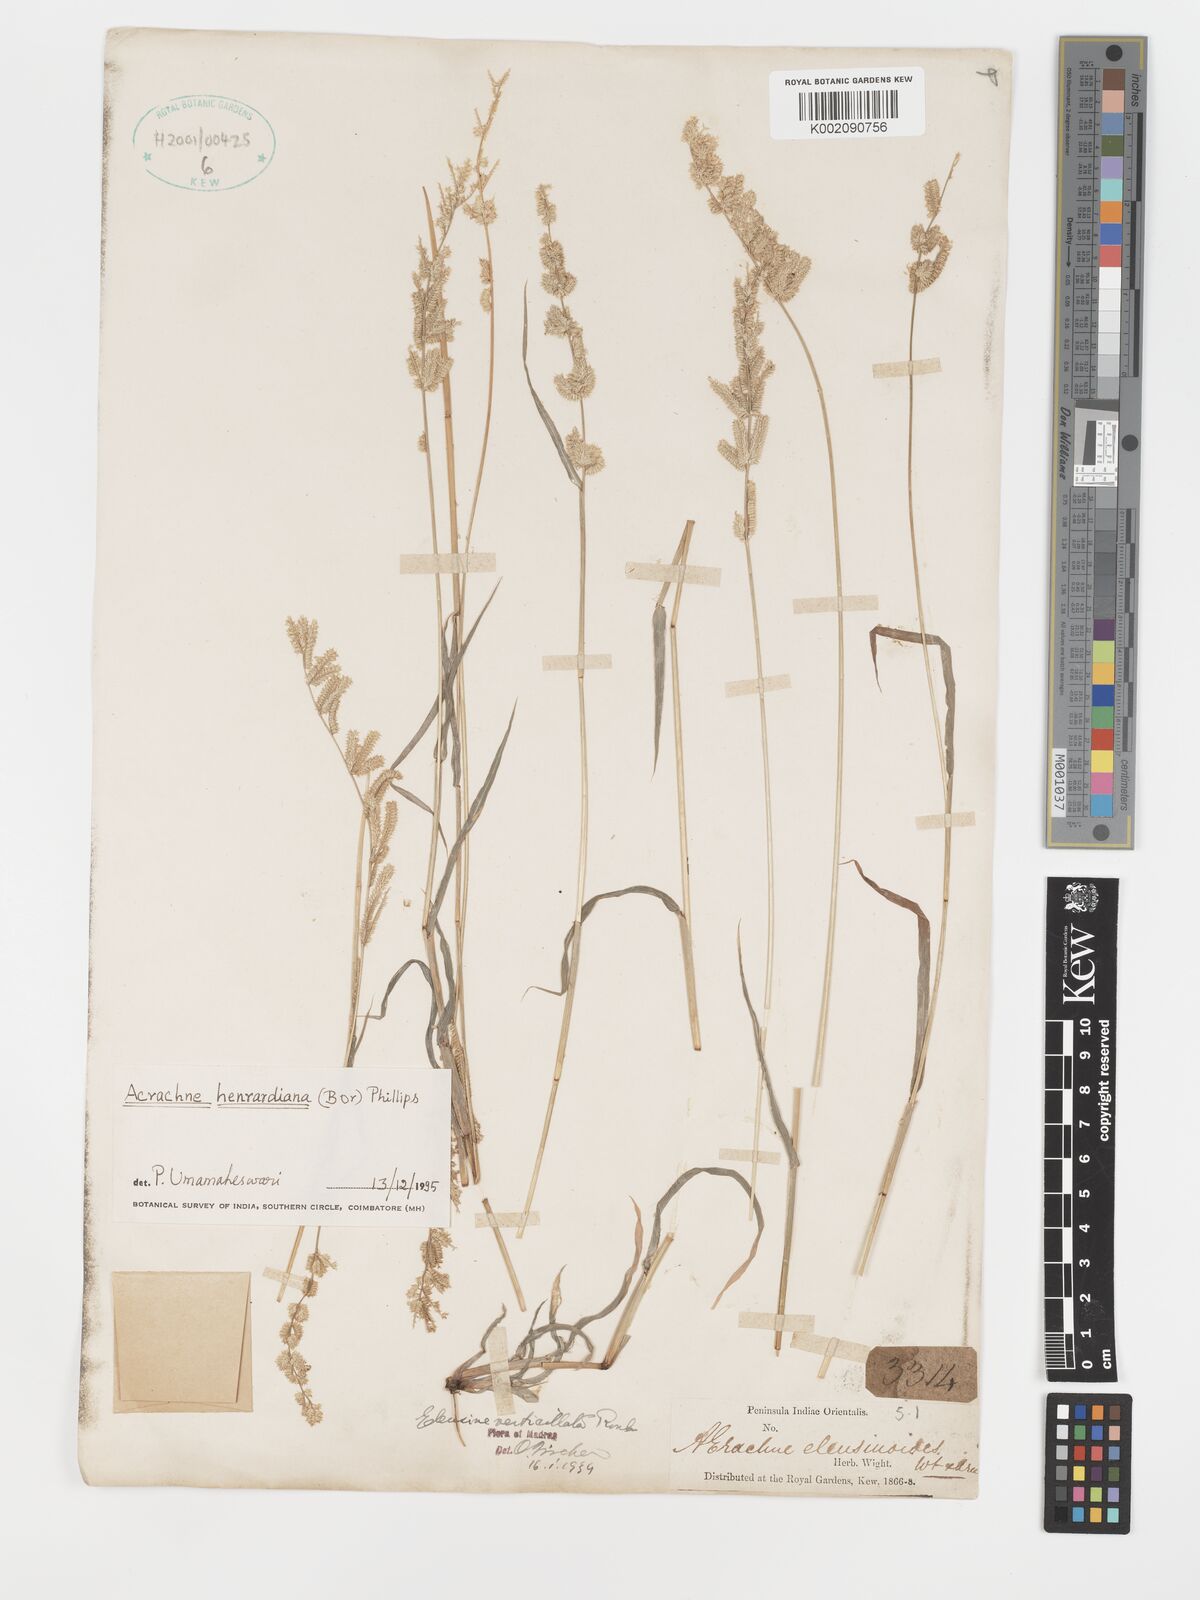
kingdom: Plantae
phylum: Tracheophyta
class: Liliopsida
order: Poales
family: Poaceae
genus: Acrachne
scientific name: Acrachne henrardiana
